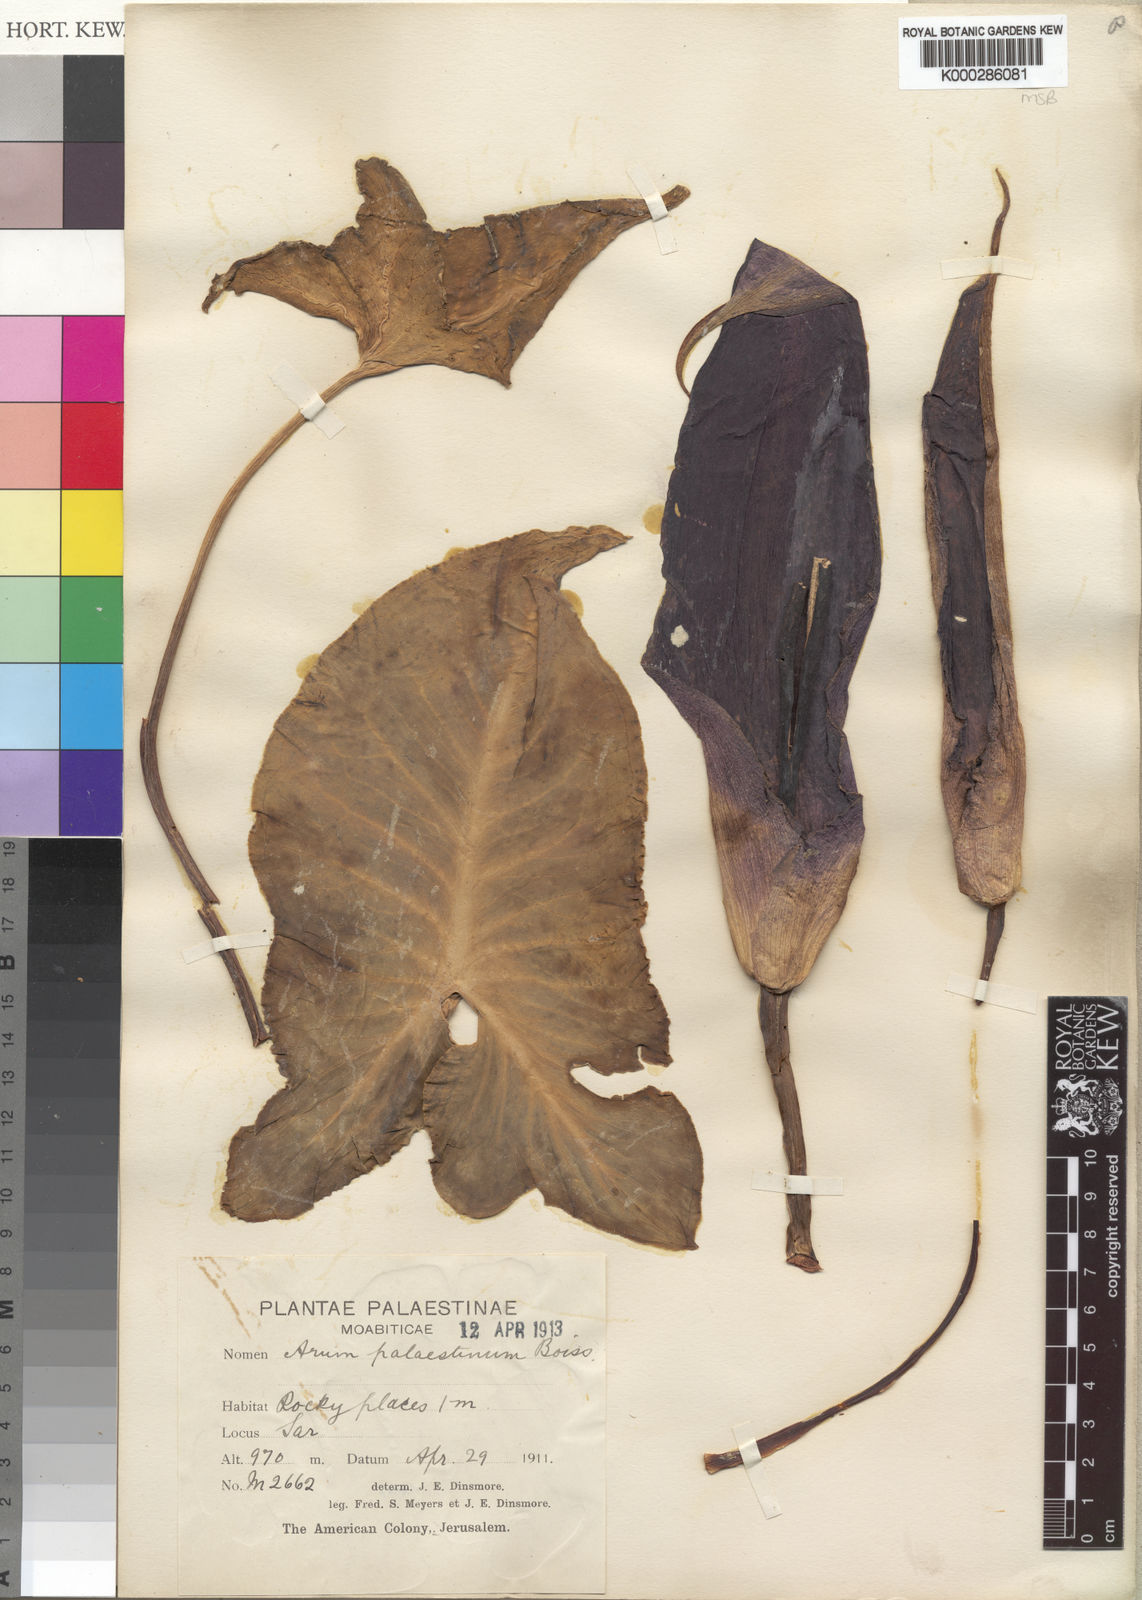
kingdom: Plantae
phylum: Tracheophyta
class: Liliopsida
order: Alismatales
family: Araceae
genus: Arum
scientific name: Arum palaestinum
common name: Solomon's lily
